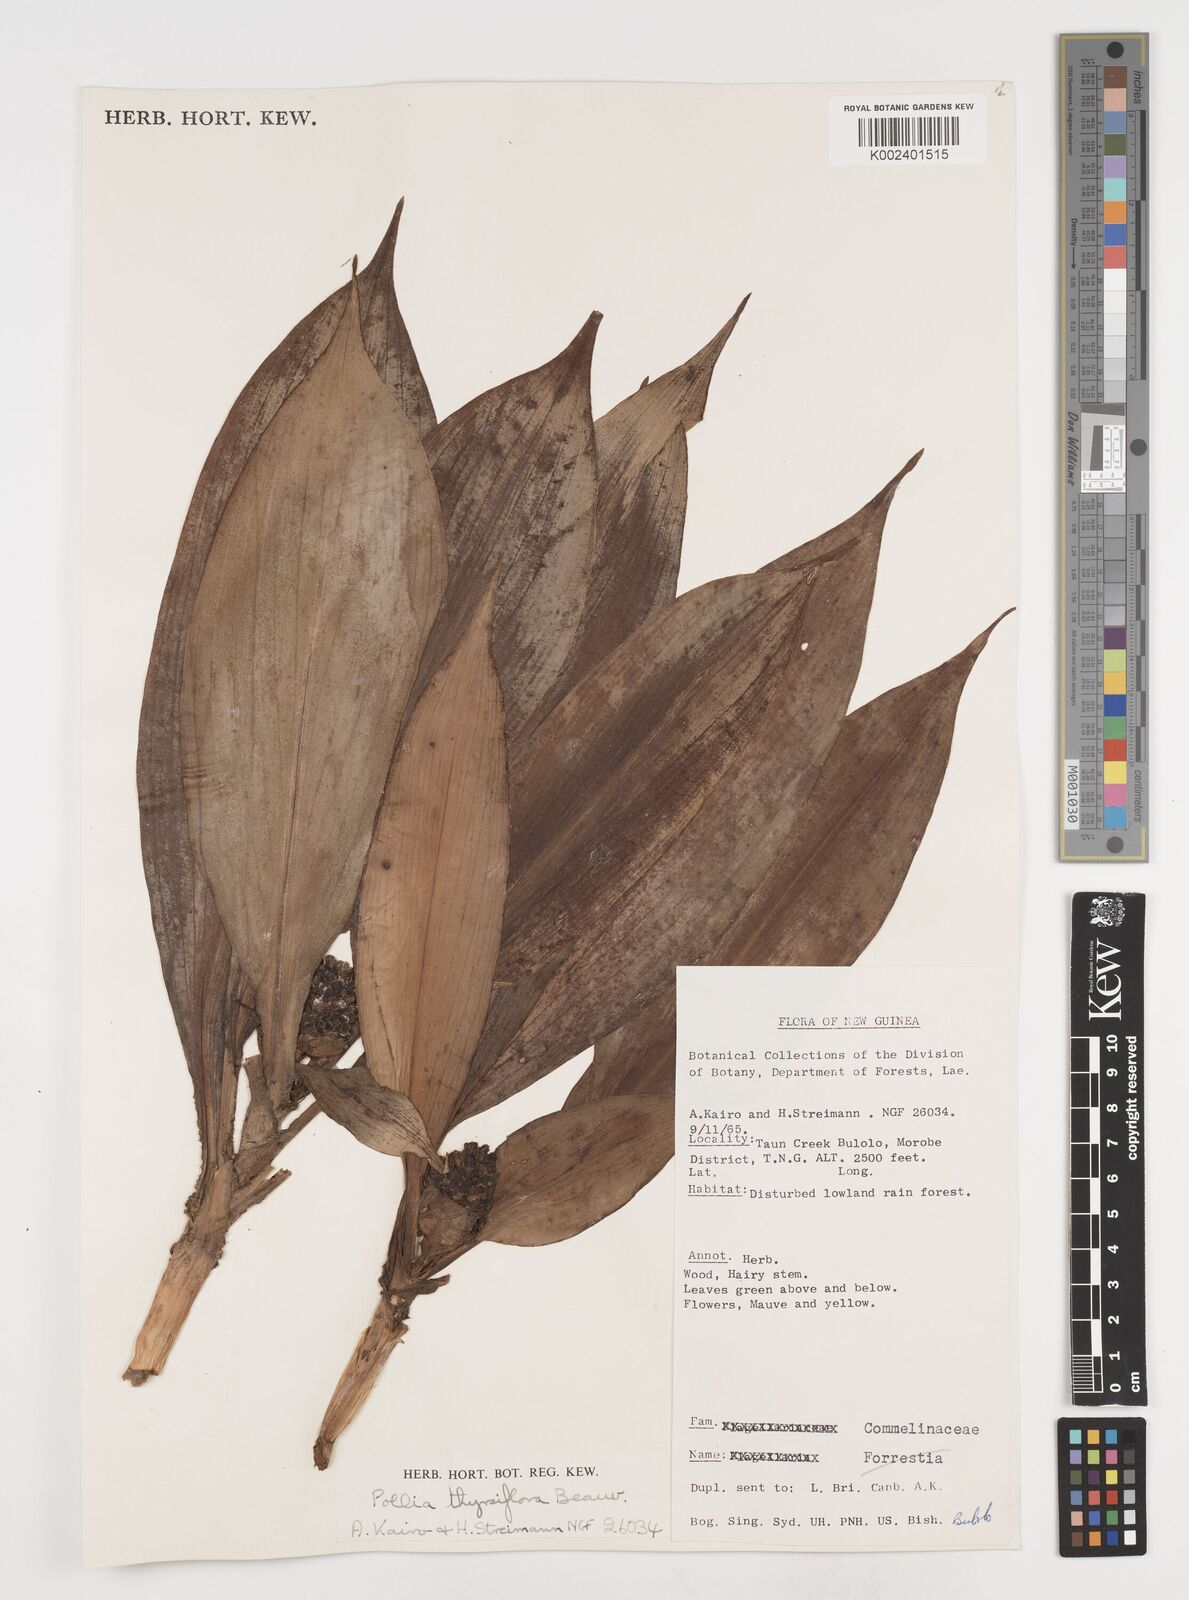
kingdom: Plantae
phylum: Tracheophyta
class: Liliopsida
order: Commelinales
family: Commelinaceae
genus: Pollia
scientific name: Pollia thyrsiflora
